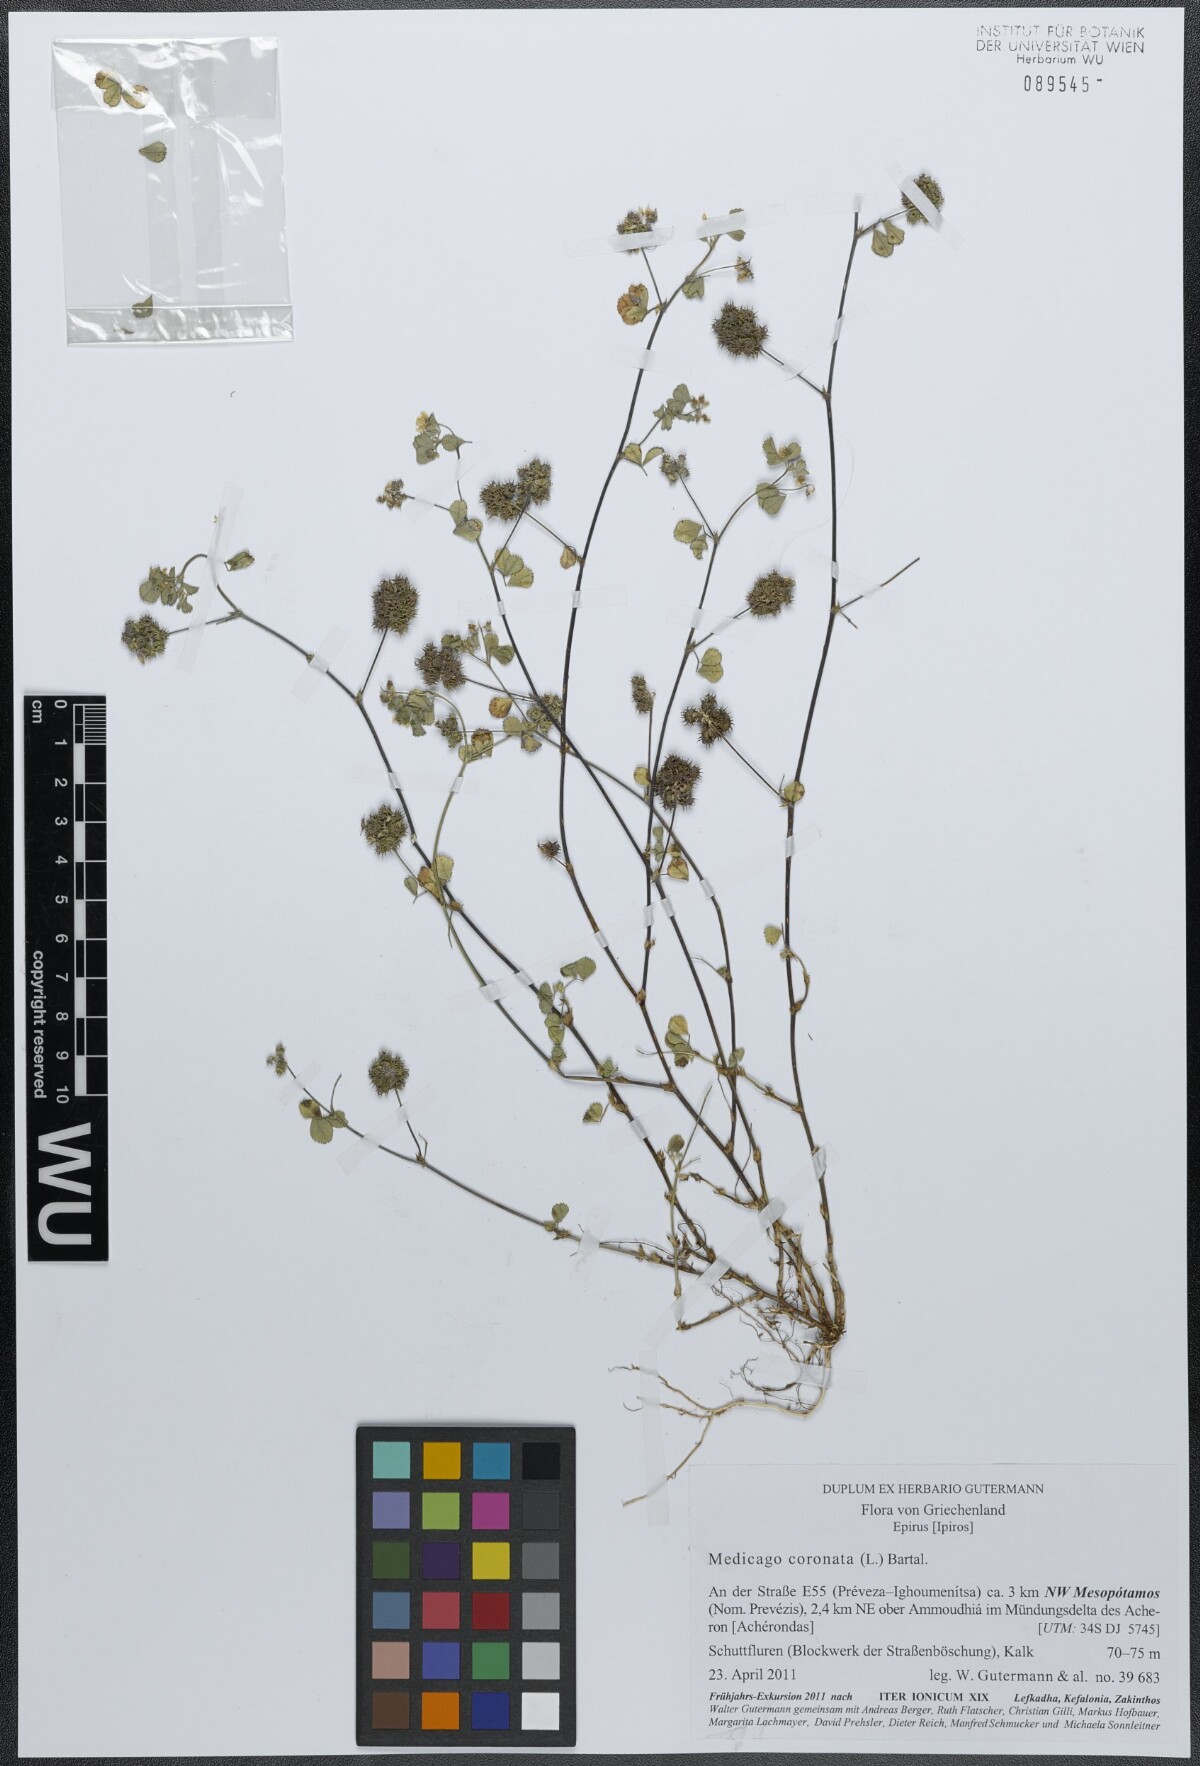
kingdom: Plantae
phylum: Tracheophyta
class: Magnoliopsida
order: Fabales
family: Fabaceae
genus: Medicago
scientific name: Medicago coronata
